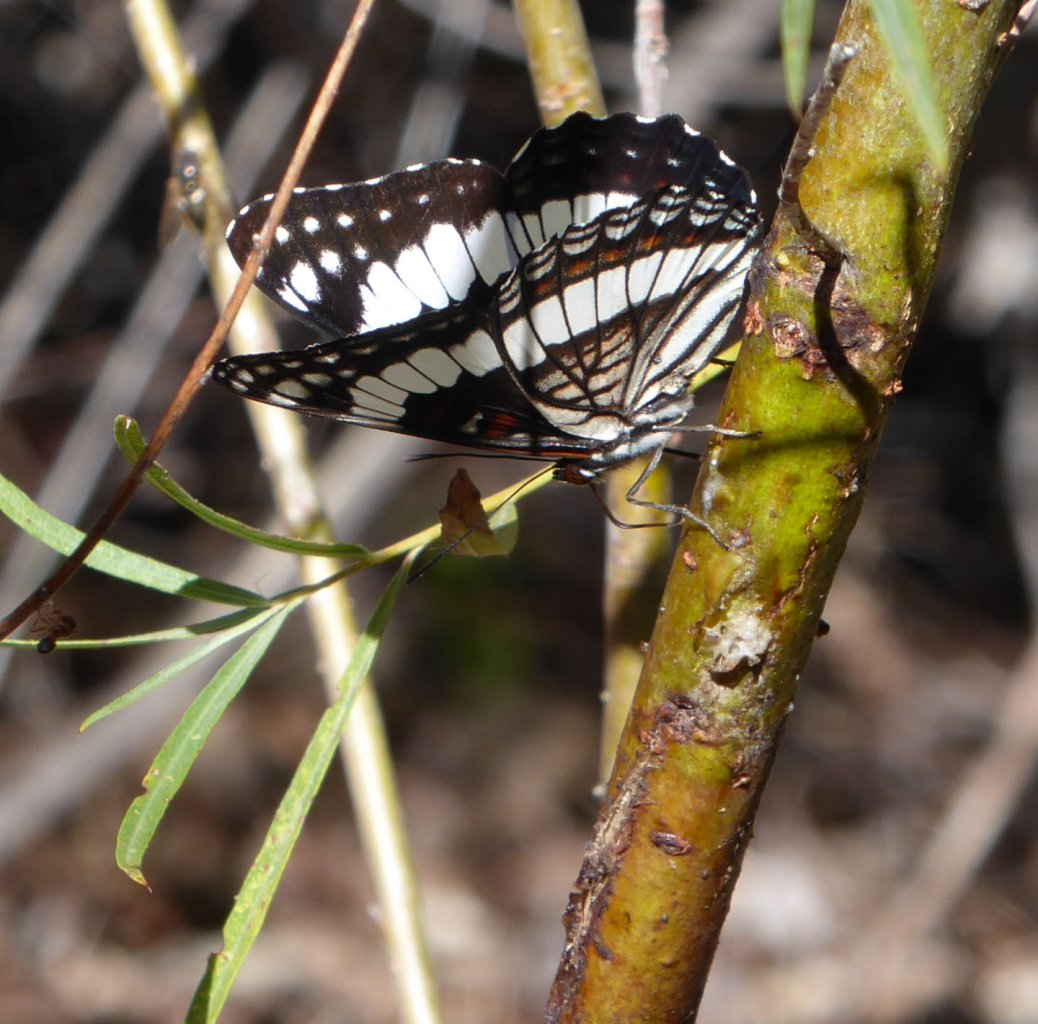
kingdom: Animalia
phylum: Arthropoda
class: Insecta
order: Lepidoptera
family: Nymphalidae
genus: Limenitis
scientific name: Limenitis weidemeyerii
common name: Weidemeyer's Admiral
